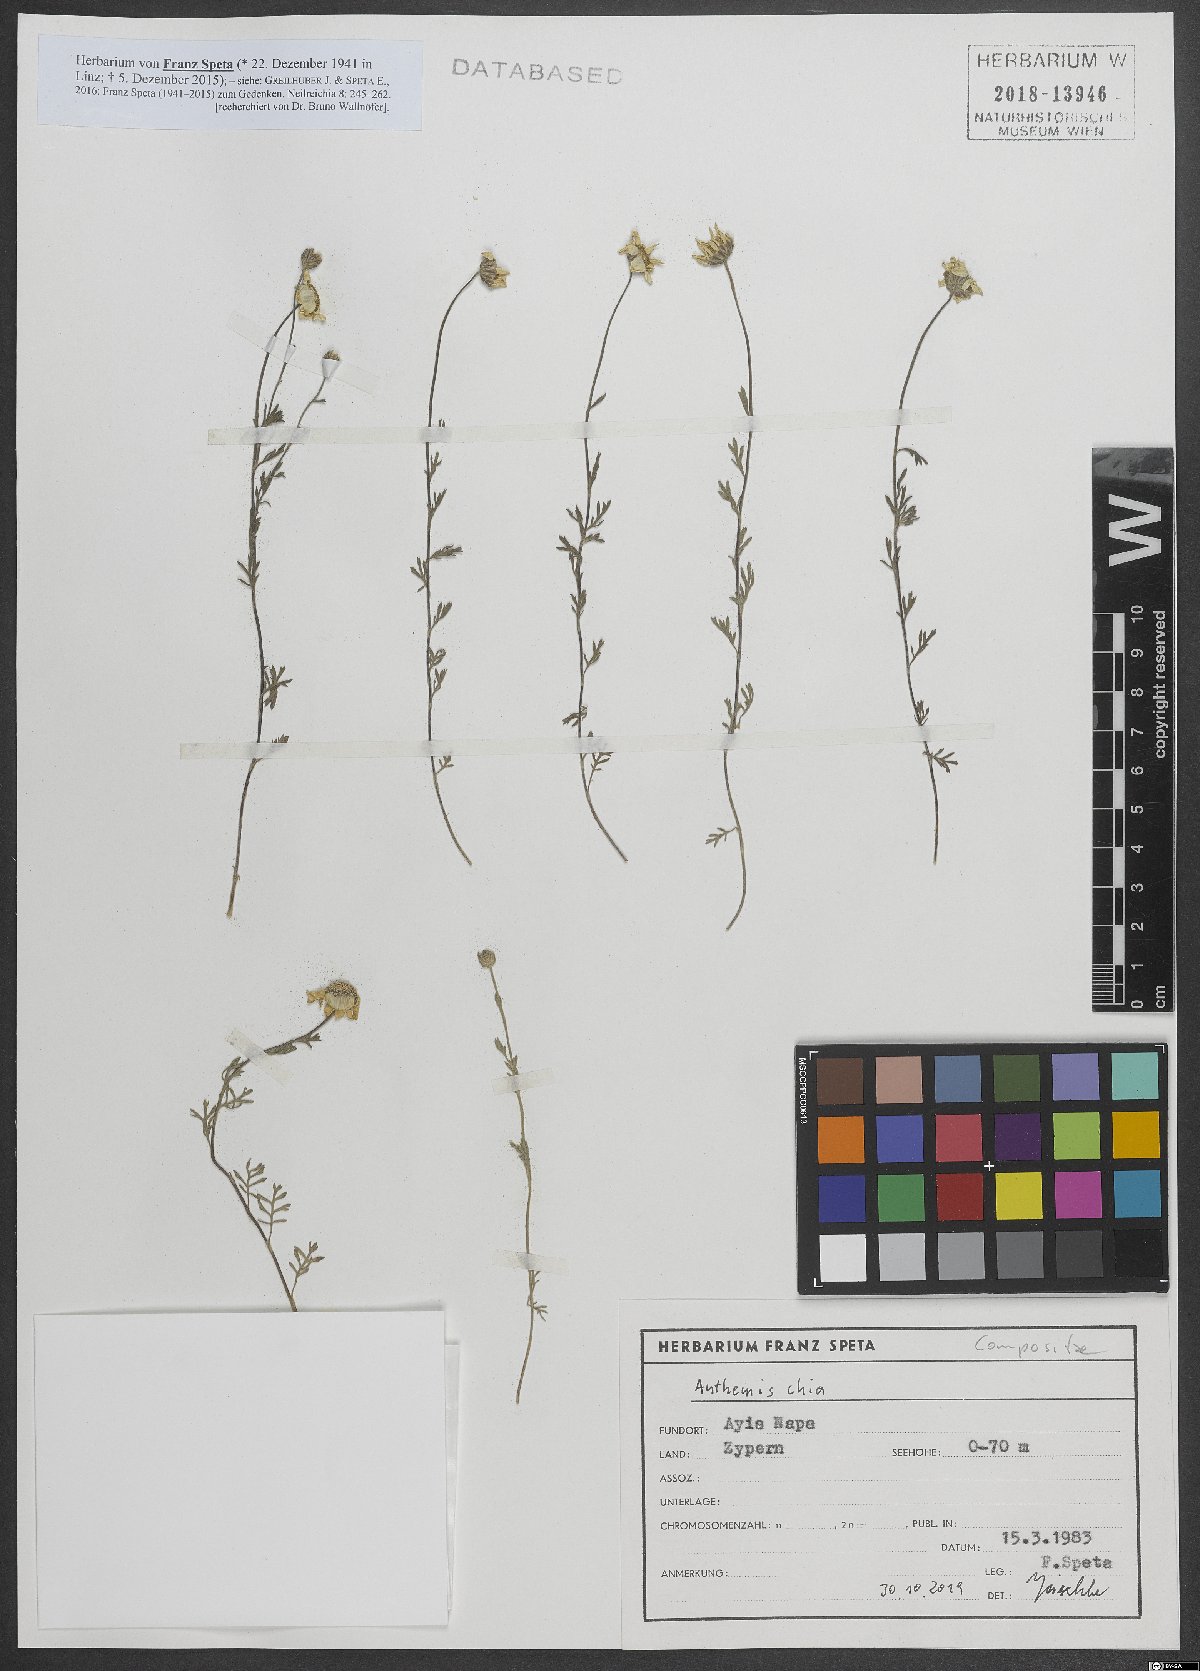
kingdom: Plantae
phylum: Tracheophyta
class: Magnoliopsida
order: Asterales
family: Asteraceae
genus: Anthemis
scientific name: Anthemis chia
